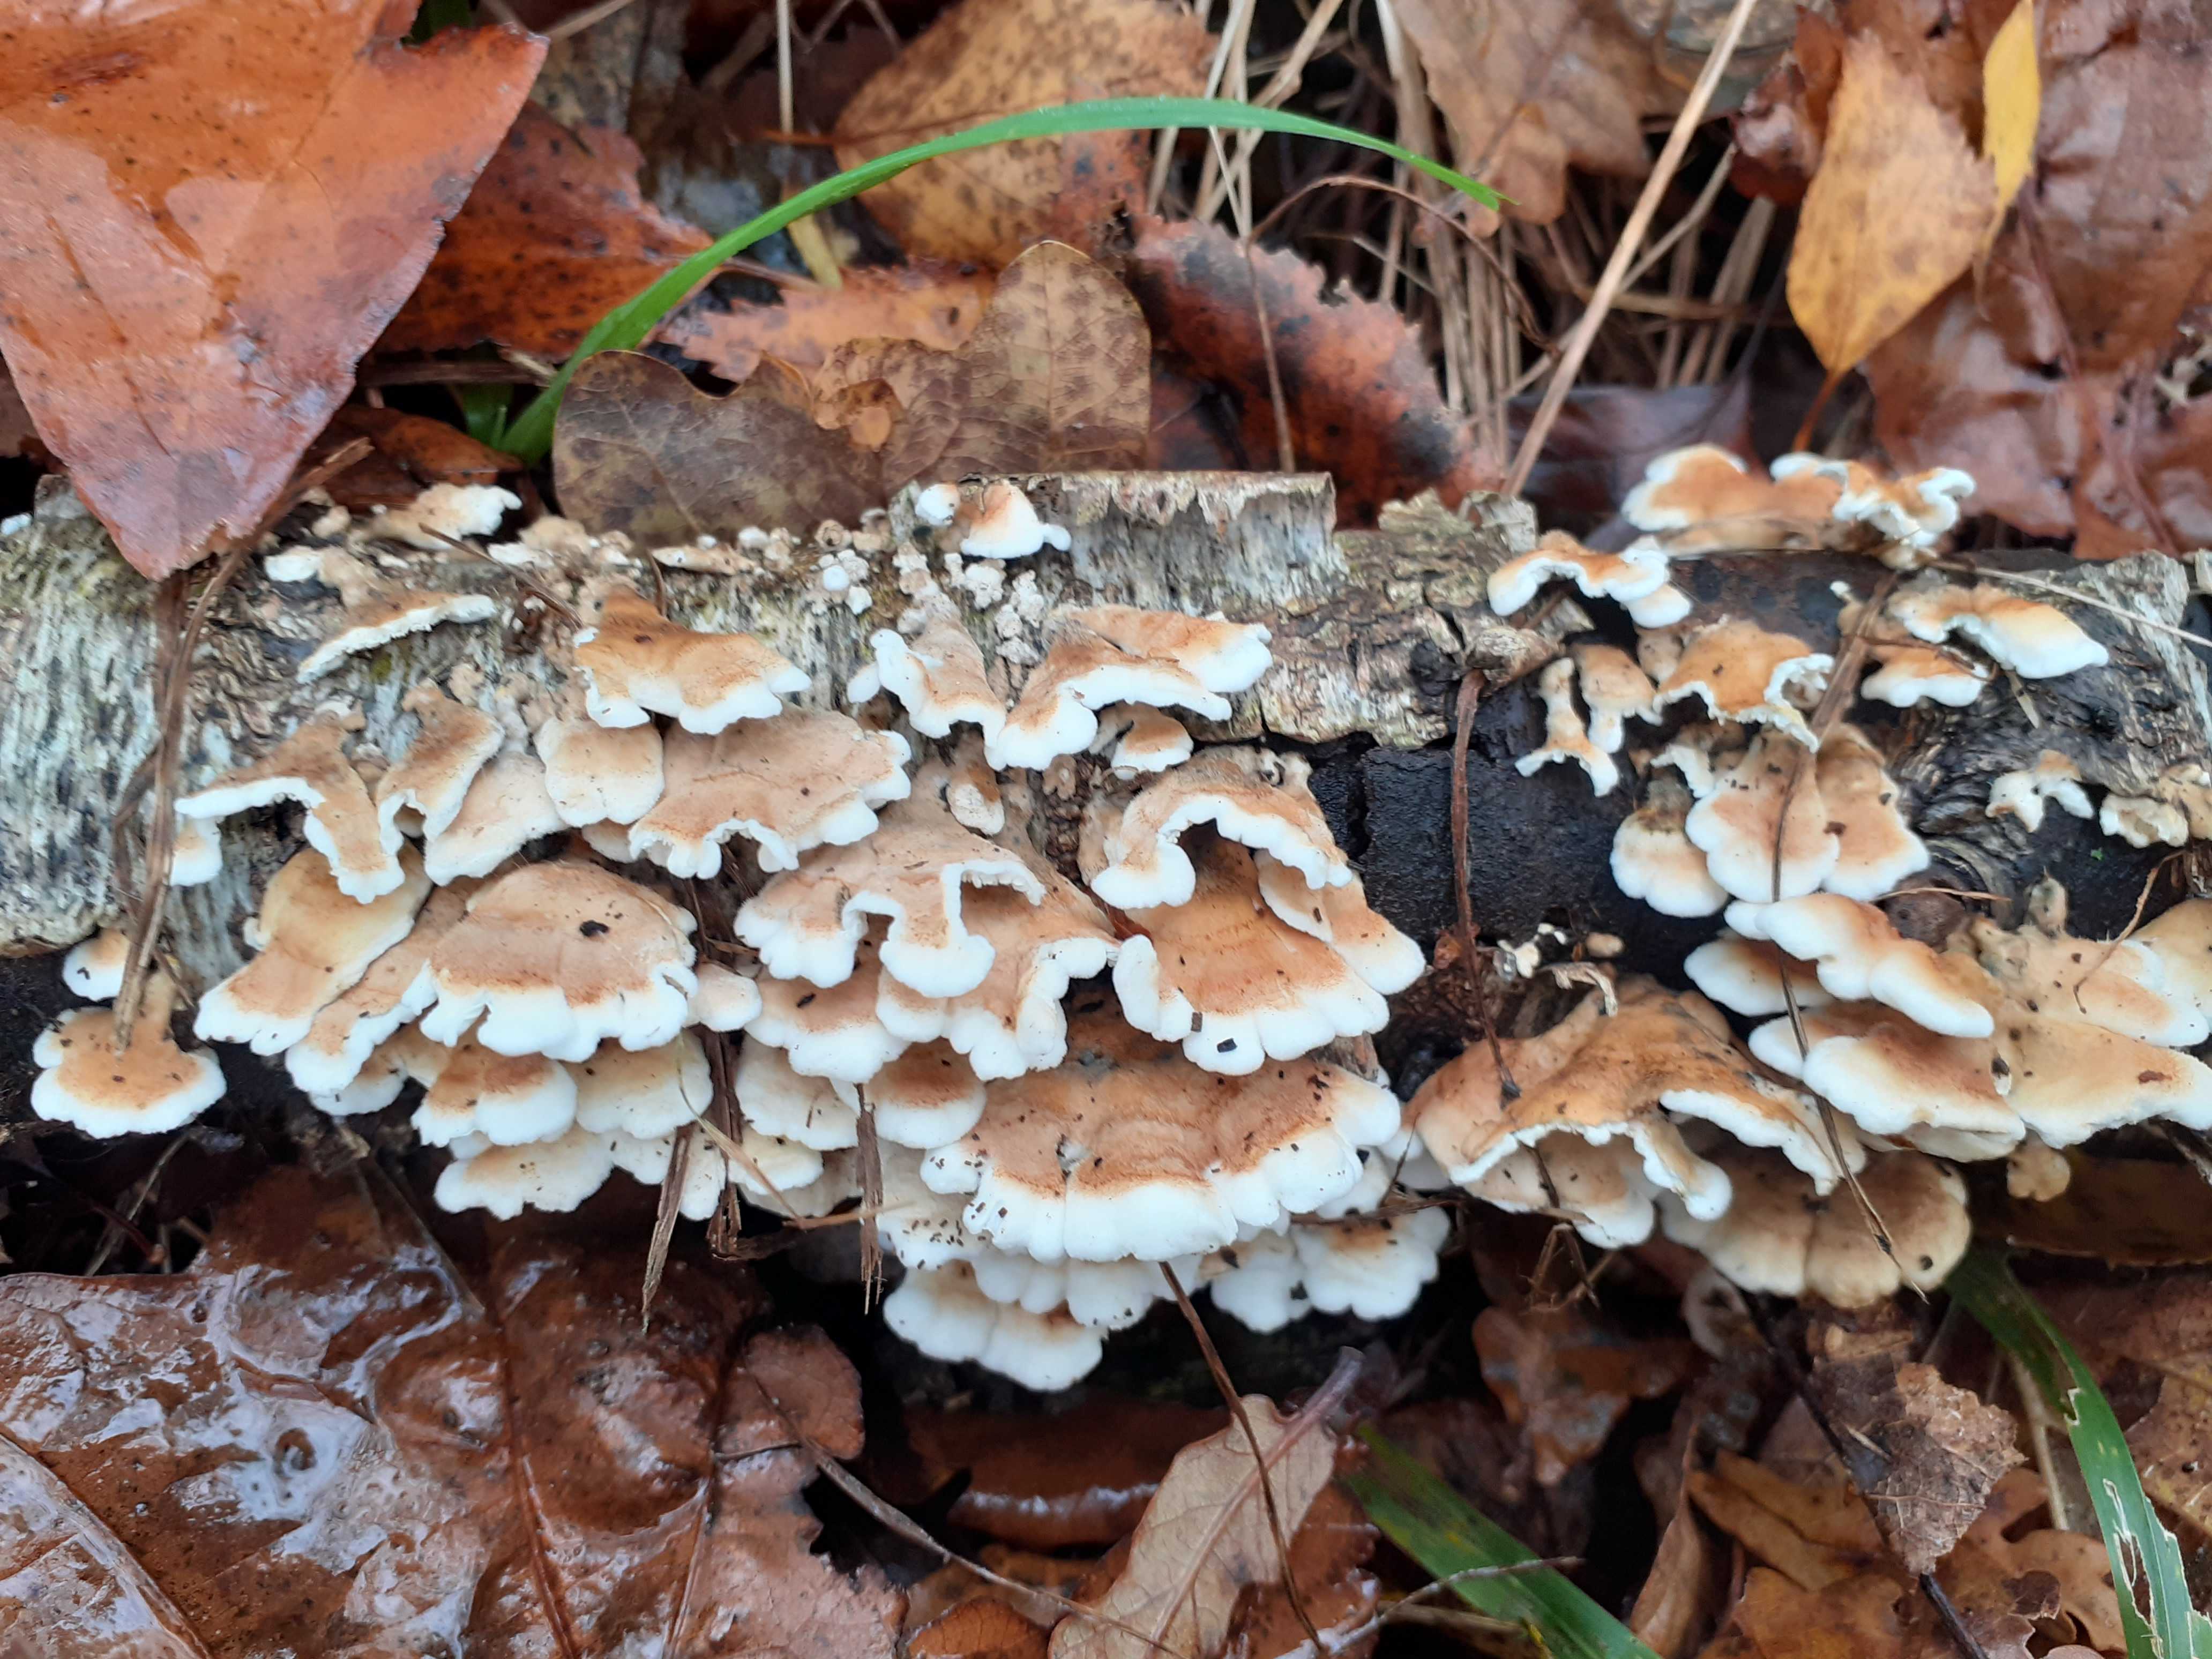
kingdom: Fungi
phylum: Basidiomycota
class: Agaricomycetes
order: Amylocorticiales
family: Amylocorticiaceae
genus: Plicaturopsis
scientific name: Plicaturopsis crispa
